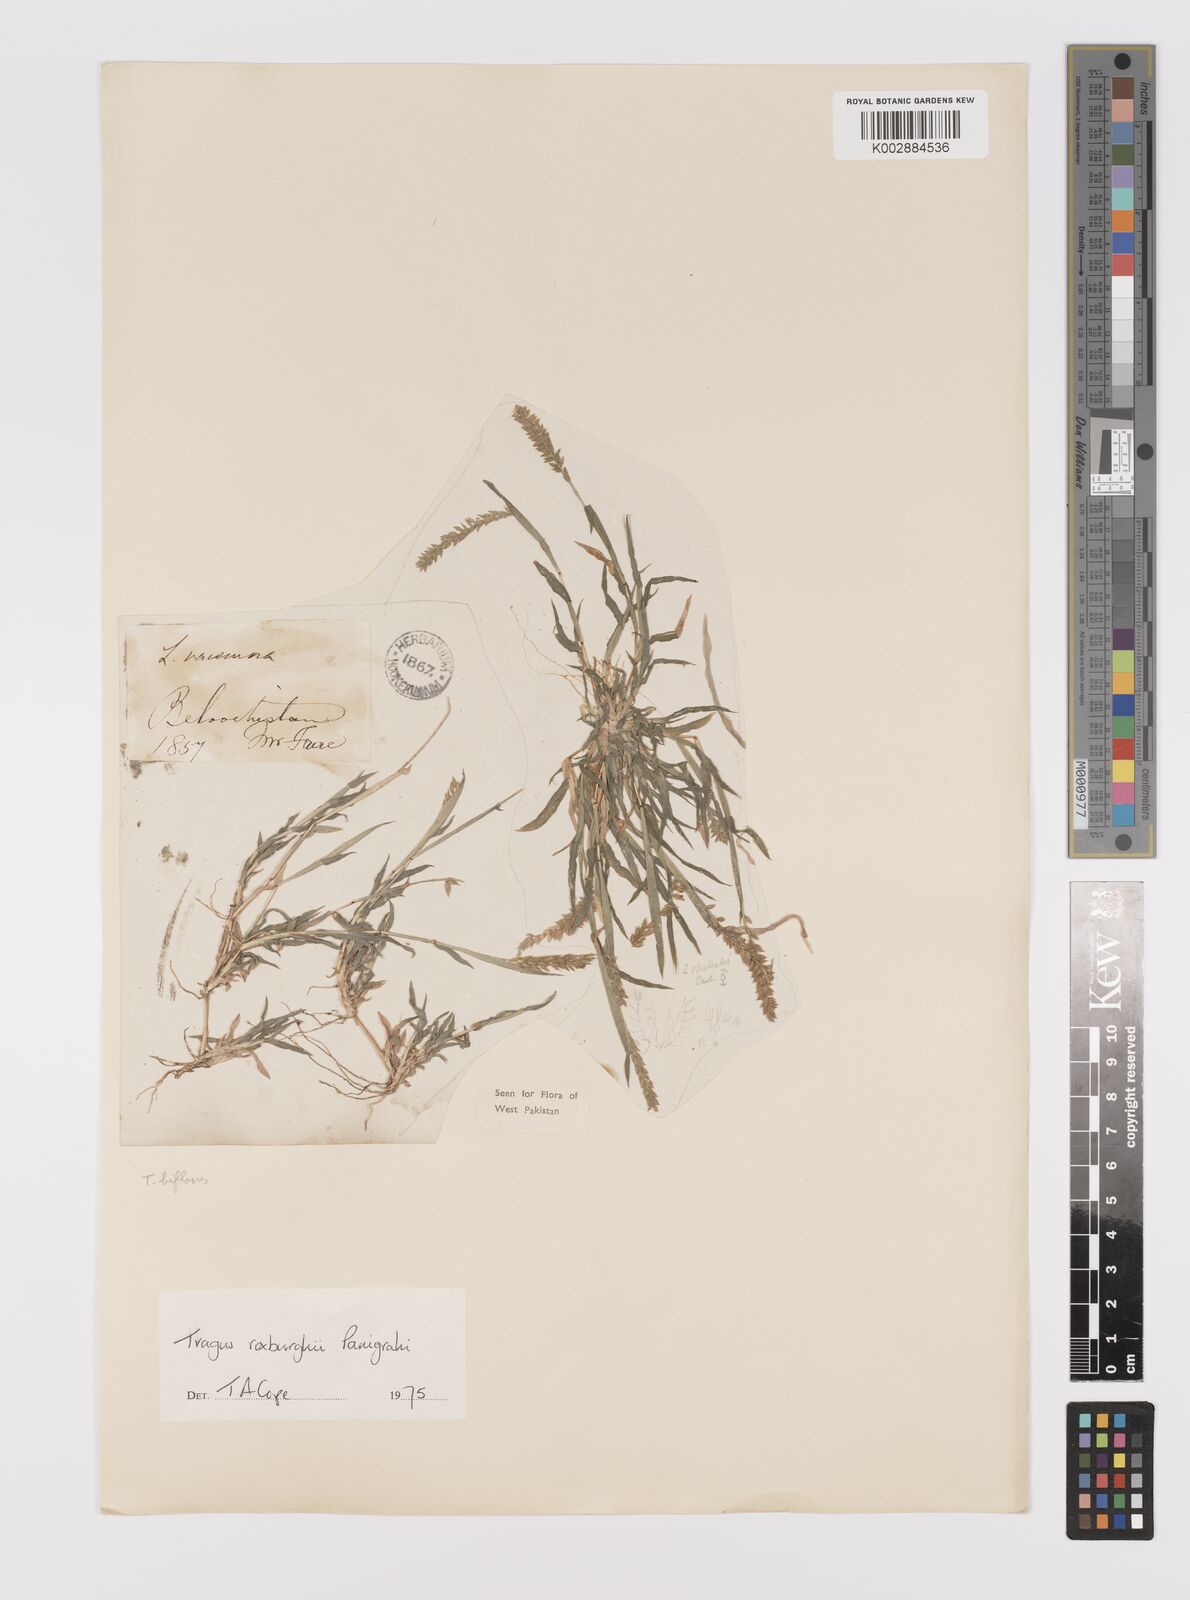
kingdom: Plantae
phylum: Tracheophyta
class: Liliopsida
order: Poales
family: Poaceae
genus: Tragus
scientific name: Tragus mongolorum
